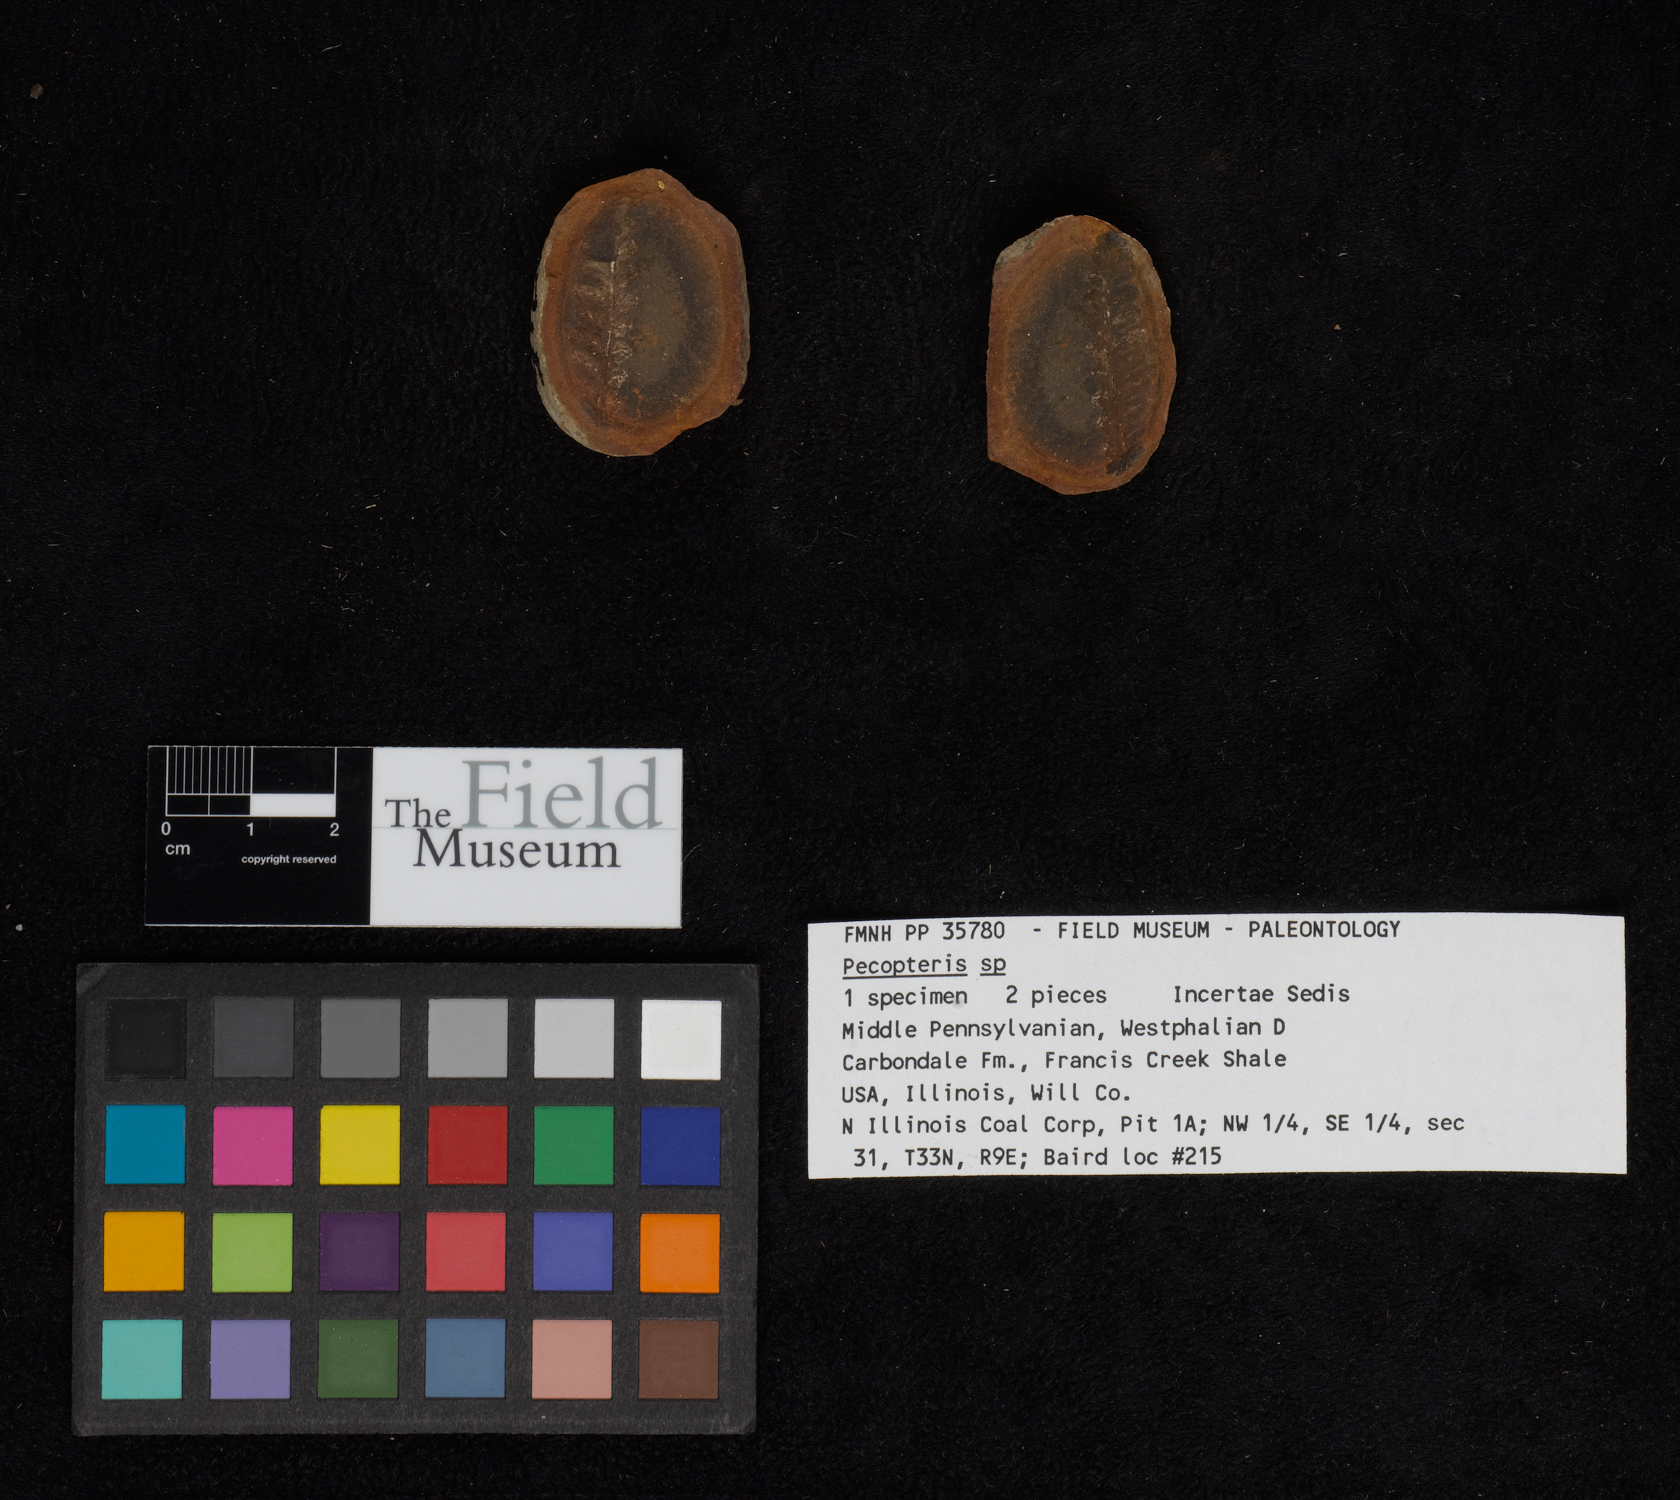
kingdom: Plantae
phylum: Tracheophyta
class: Polypodiopsida
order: Marattiales
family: Asterothecaceae
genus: Pecopteris
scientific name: Pecopteris
